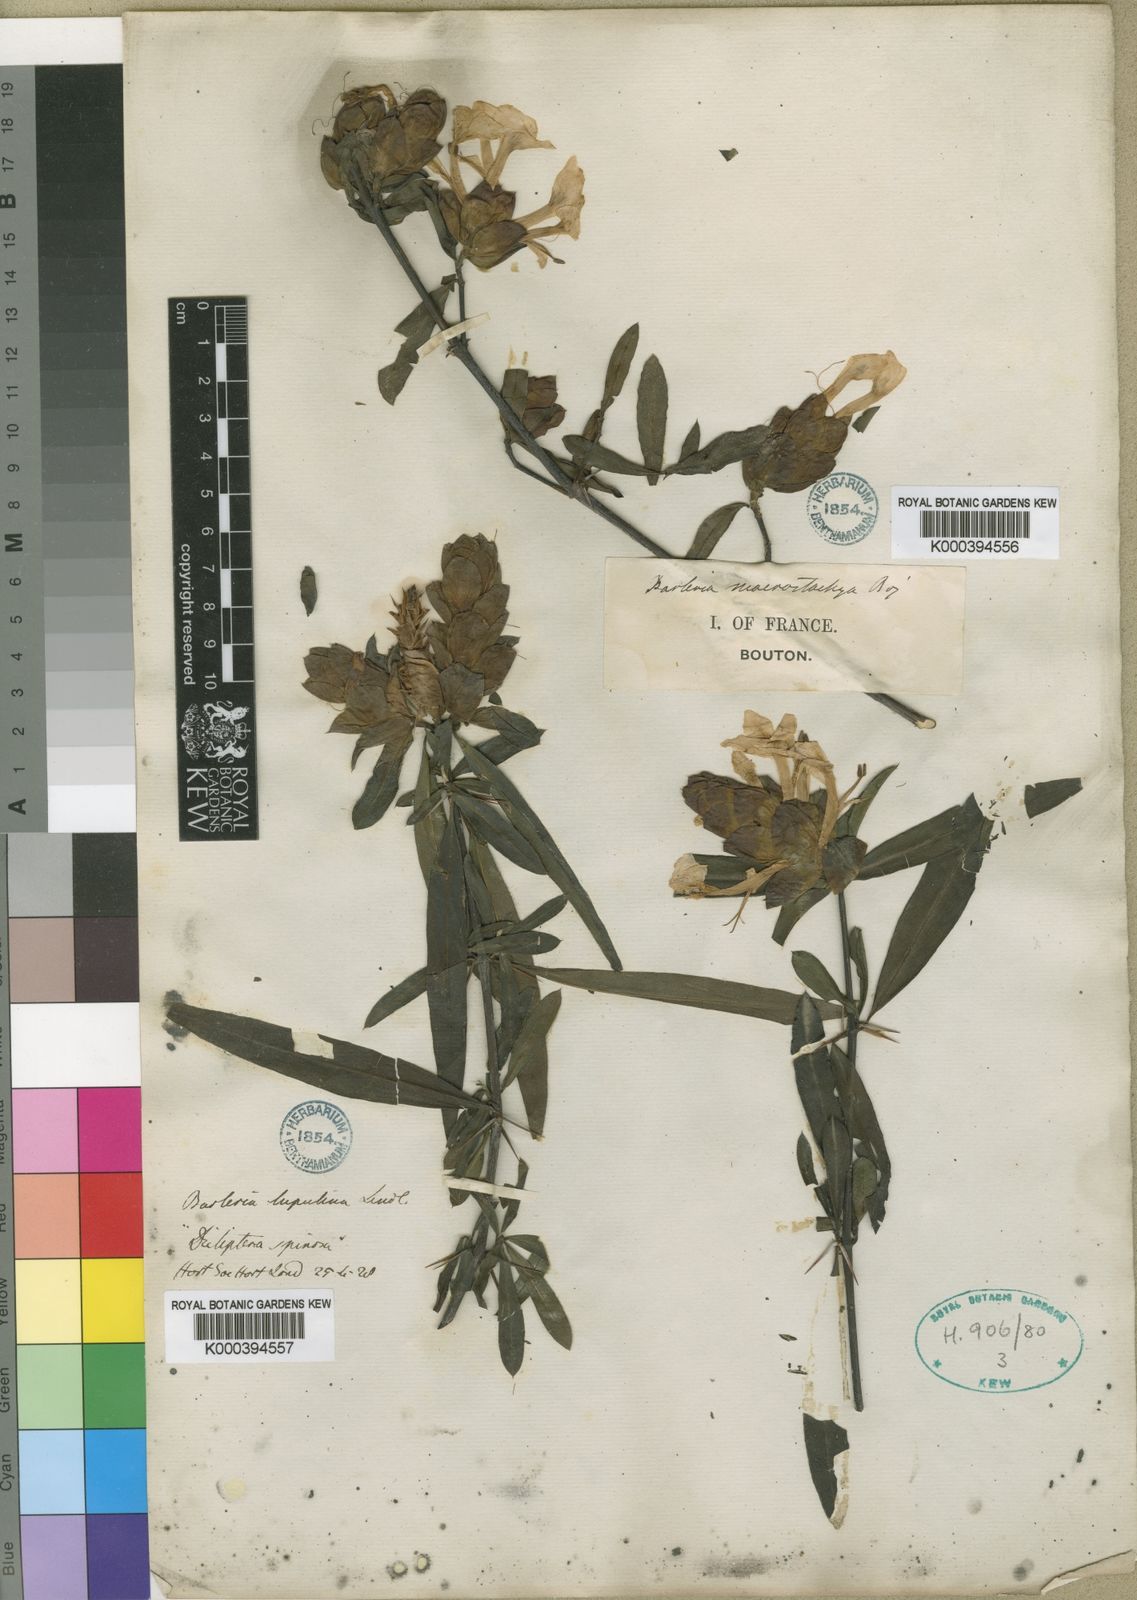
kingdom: Plantae
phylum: Tracheophyta
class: Magnoliopsida
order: Lamiales
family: Acanthaceae
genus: Barleria
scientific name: Barleria lupulina
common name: Hophead philippine violet
